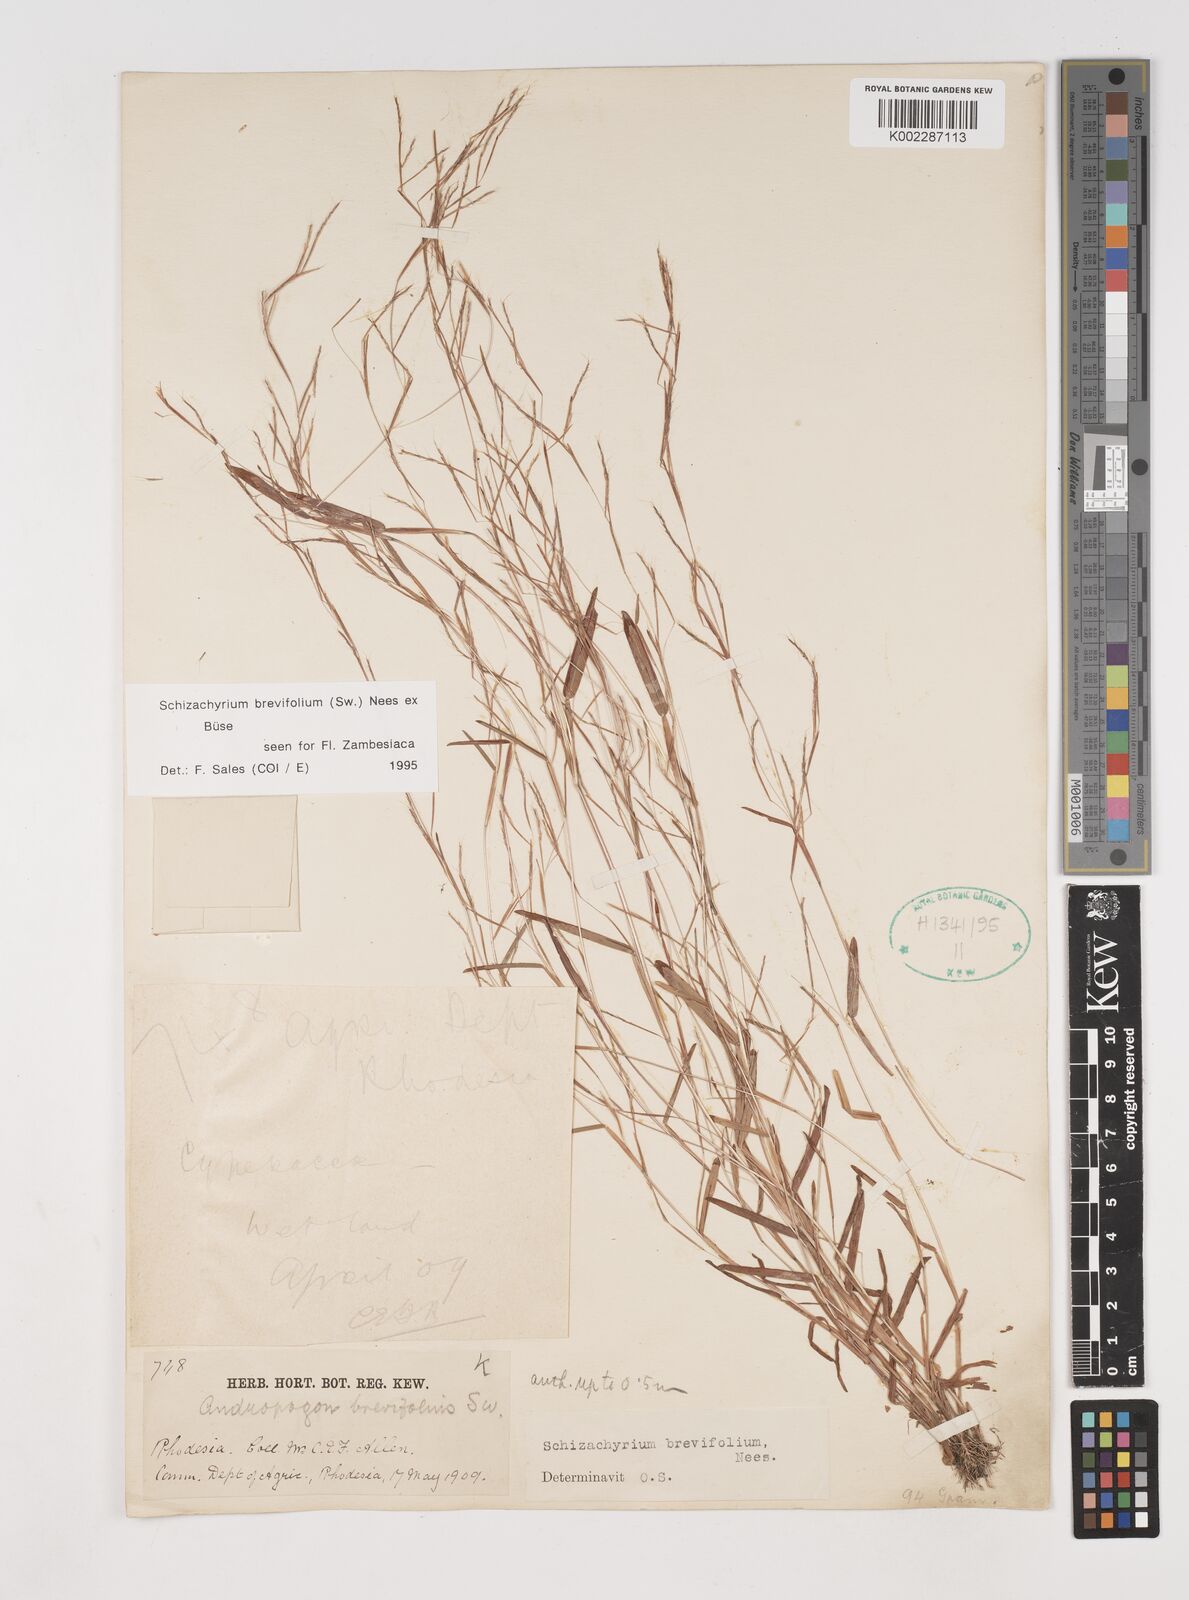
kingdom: Plantae
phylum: Tracheophyta
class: Liliopsida
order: Poales
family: Poaceae
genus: Schizachyrium
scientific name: Schizachyrium brevifolium
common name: Serillo dulce
